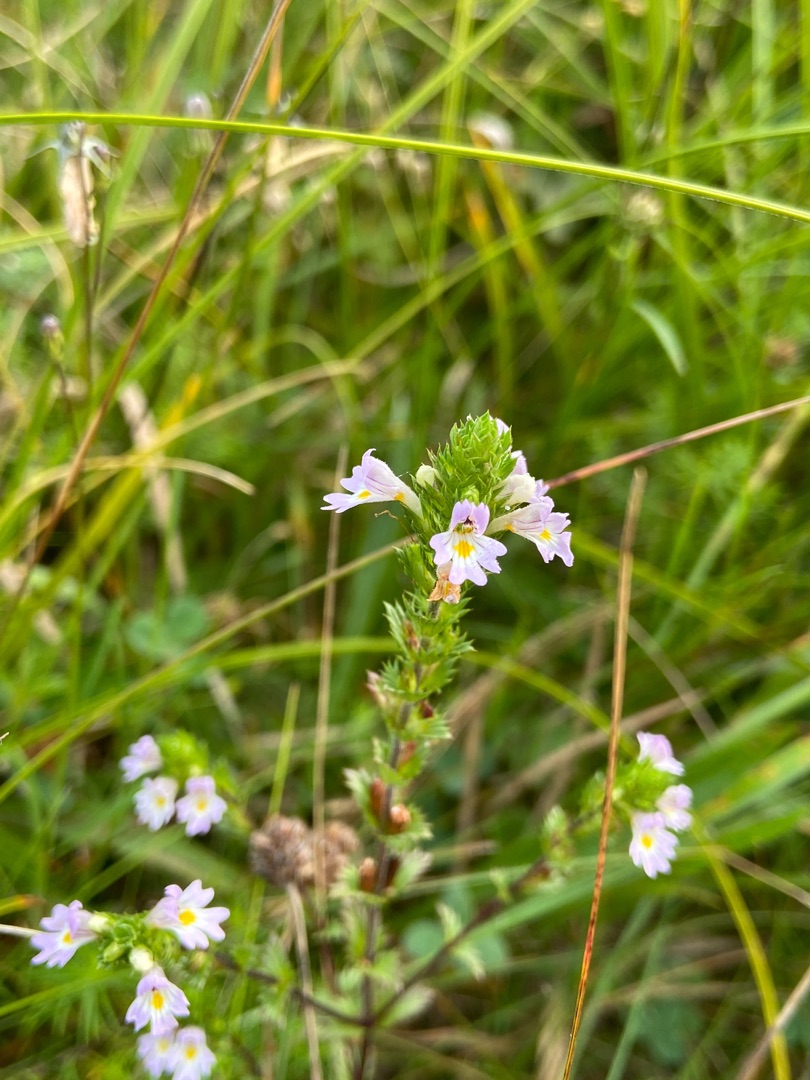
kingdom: Plantae
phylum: Tracheophyta
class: Magnoliopsida
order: Lamiales
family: Orobanchaceae
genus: Euphrasia
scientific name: Euphrasia stricta
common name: Spids øjentrøst
